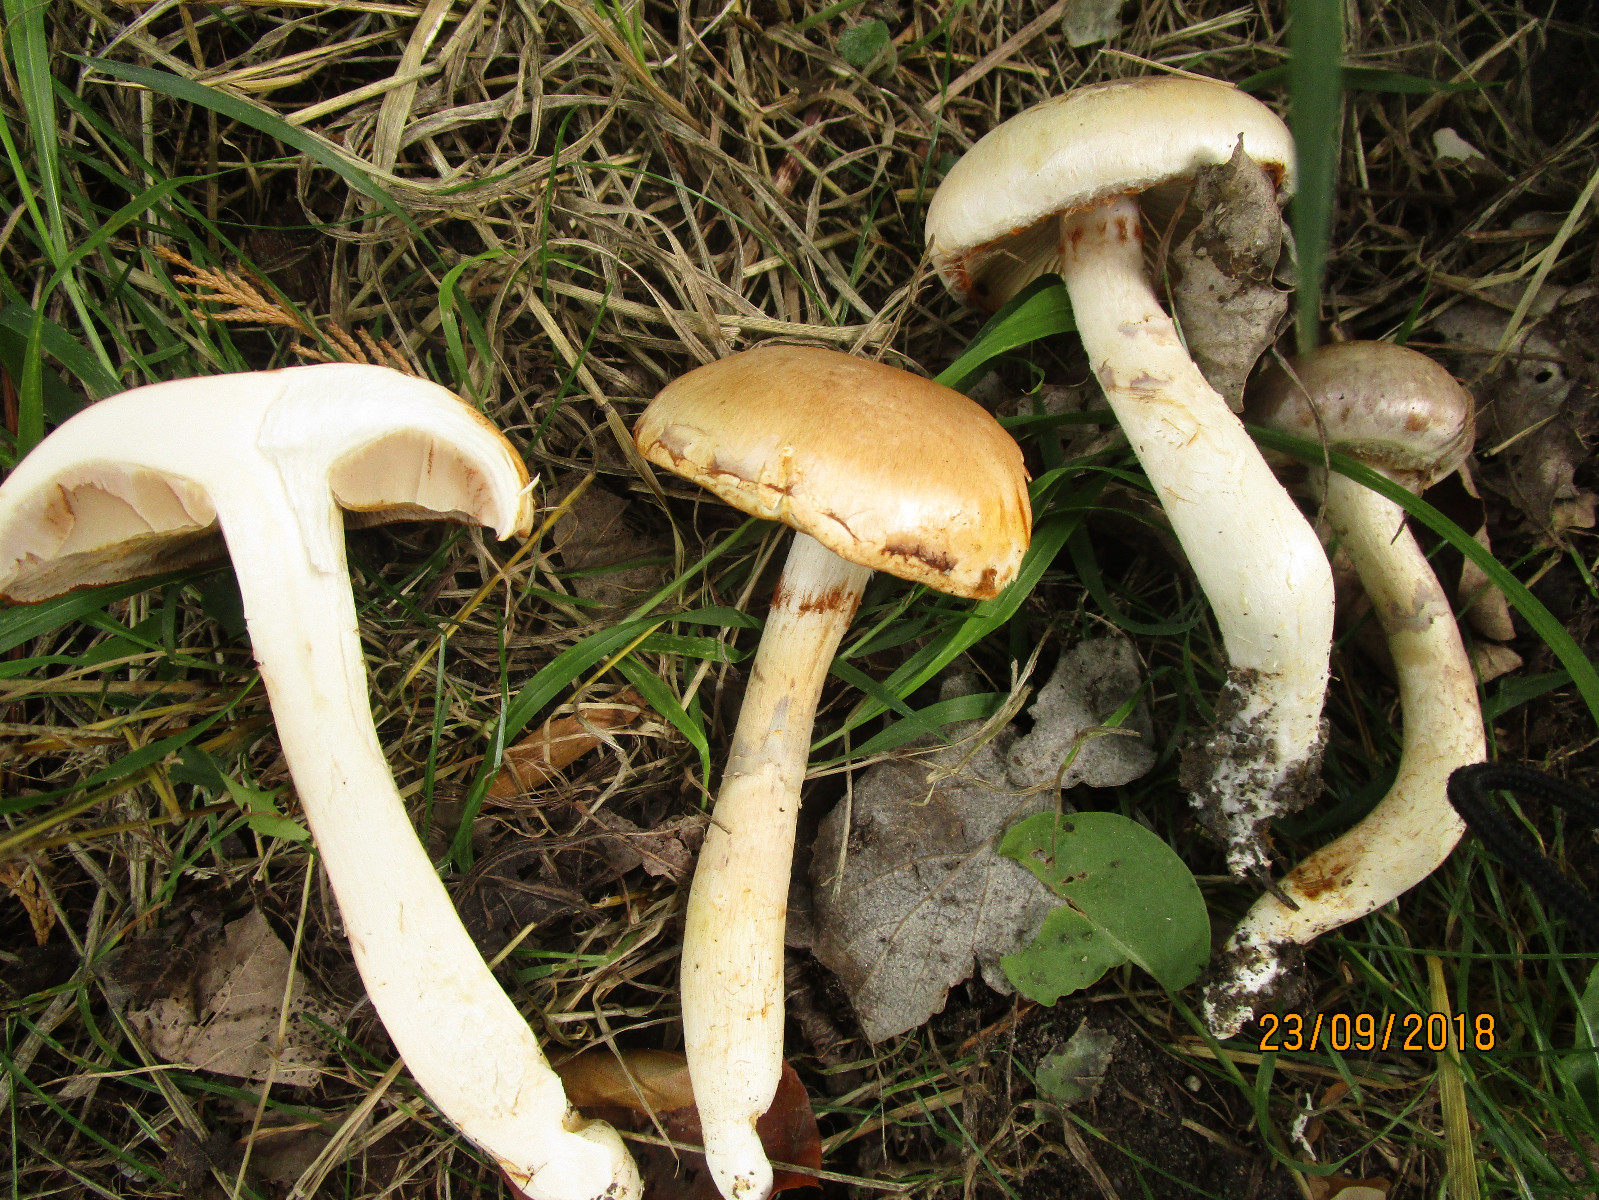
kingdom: Fungi
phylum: Basidiomycota
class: Agaricomycetes
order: Agaricales
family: Cortinariaceae
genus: Phlegmacium
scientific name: Phlegmacium argutum
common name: hvidlig slørhat
